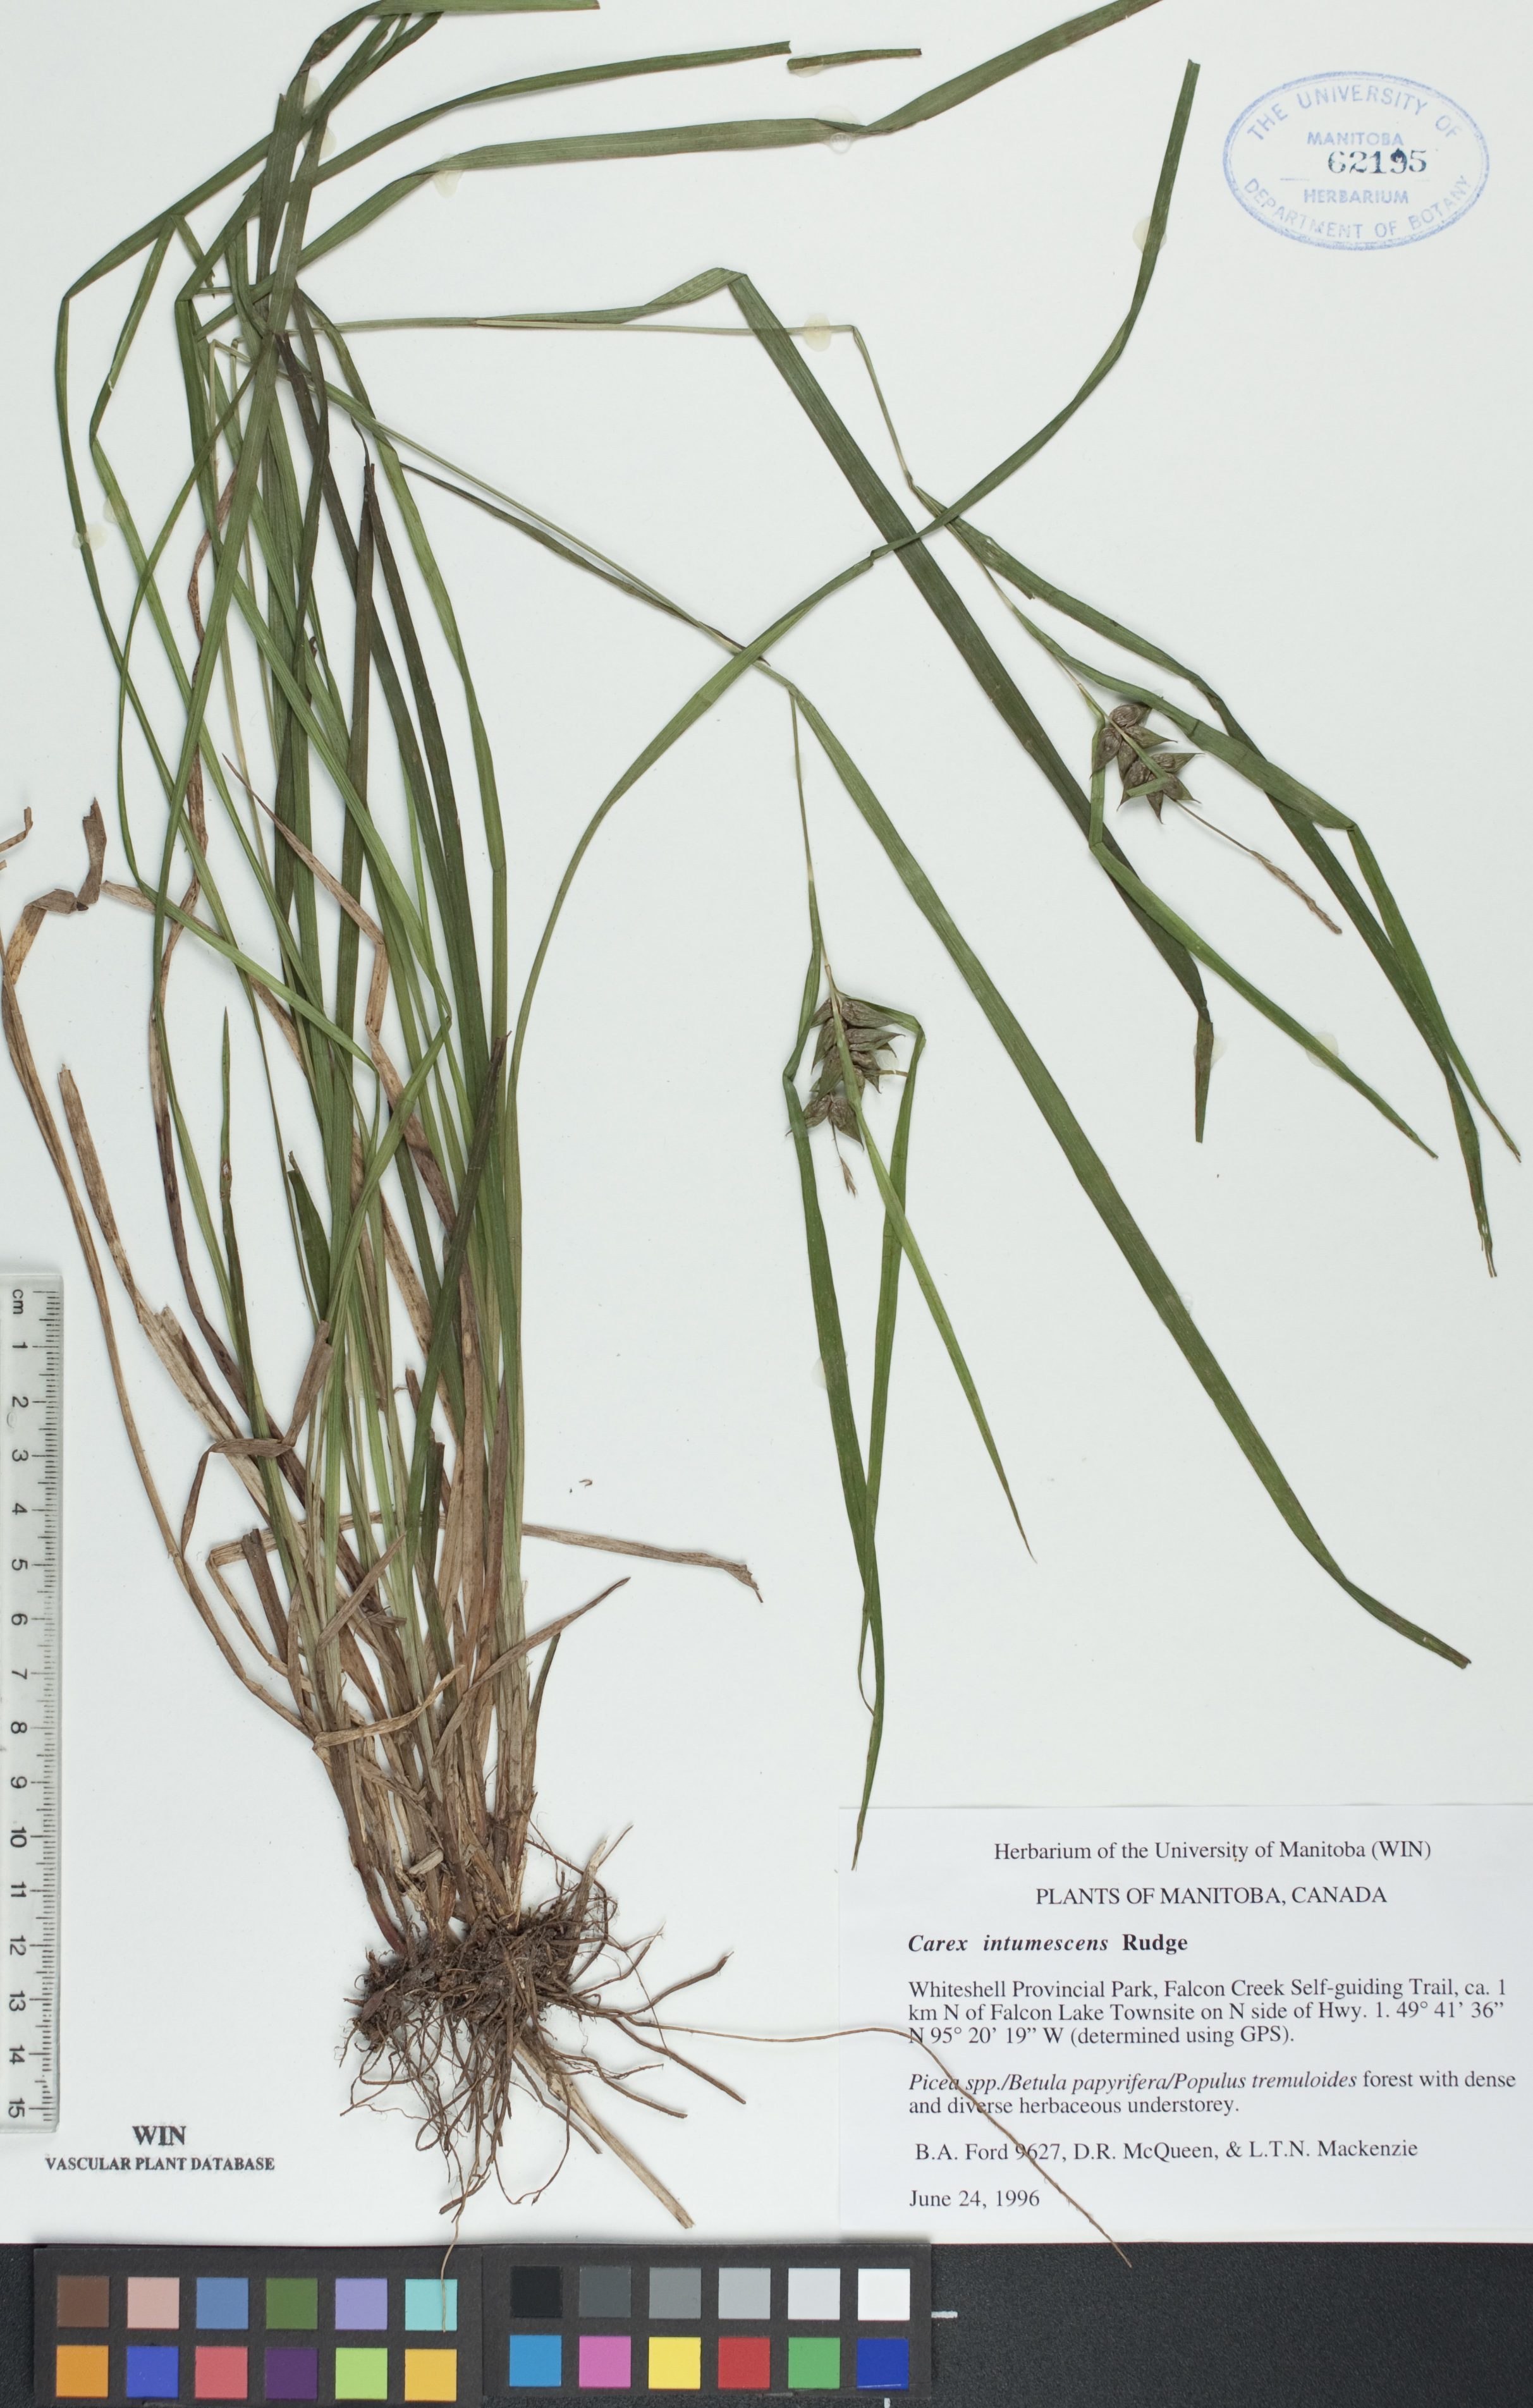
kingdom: Plantae
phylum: Tracheophyta
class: Liliopsida
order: Poales
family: Cyperaceae
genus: Carex
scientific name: Carex intumescens
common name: Greater bladder sedge
